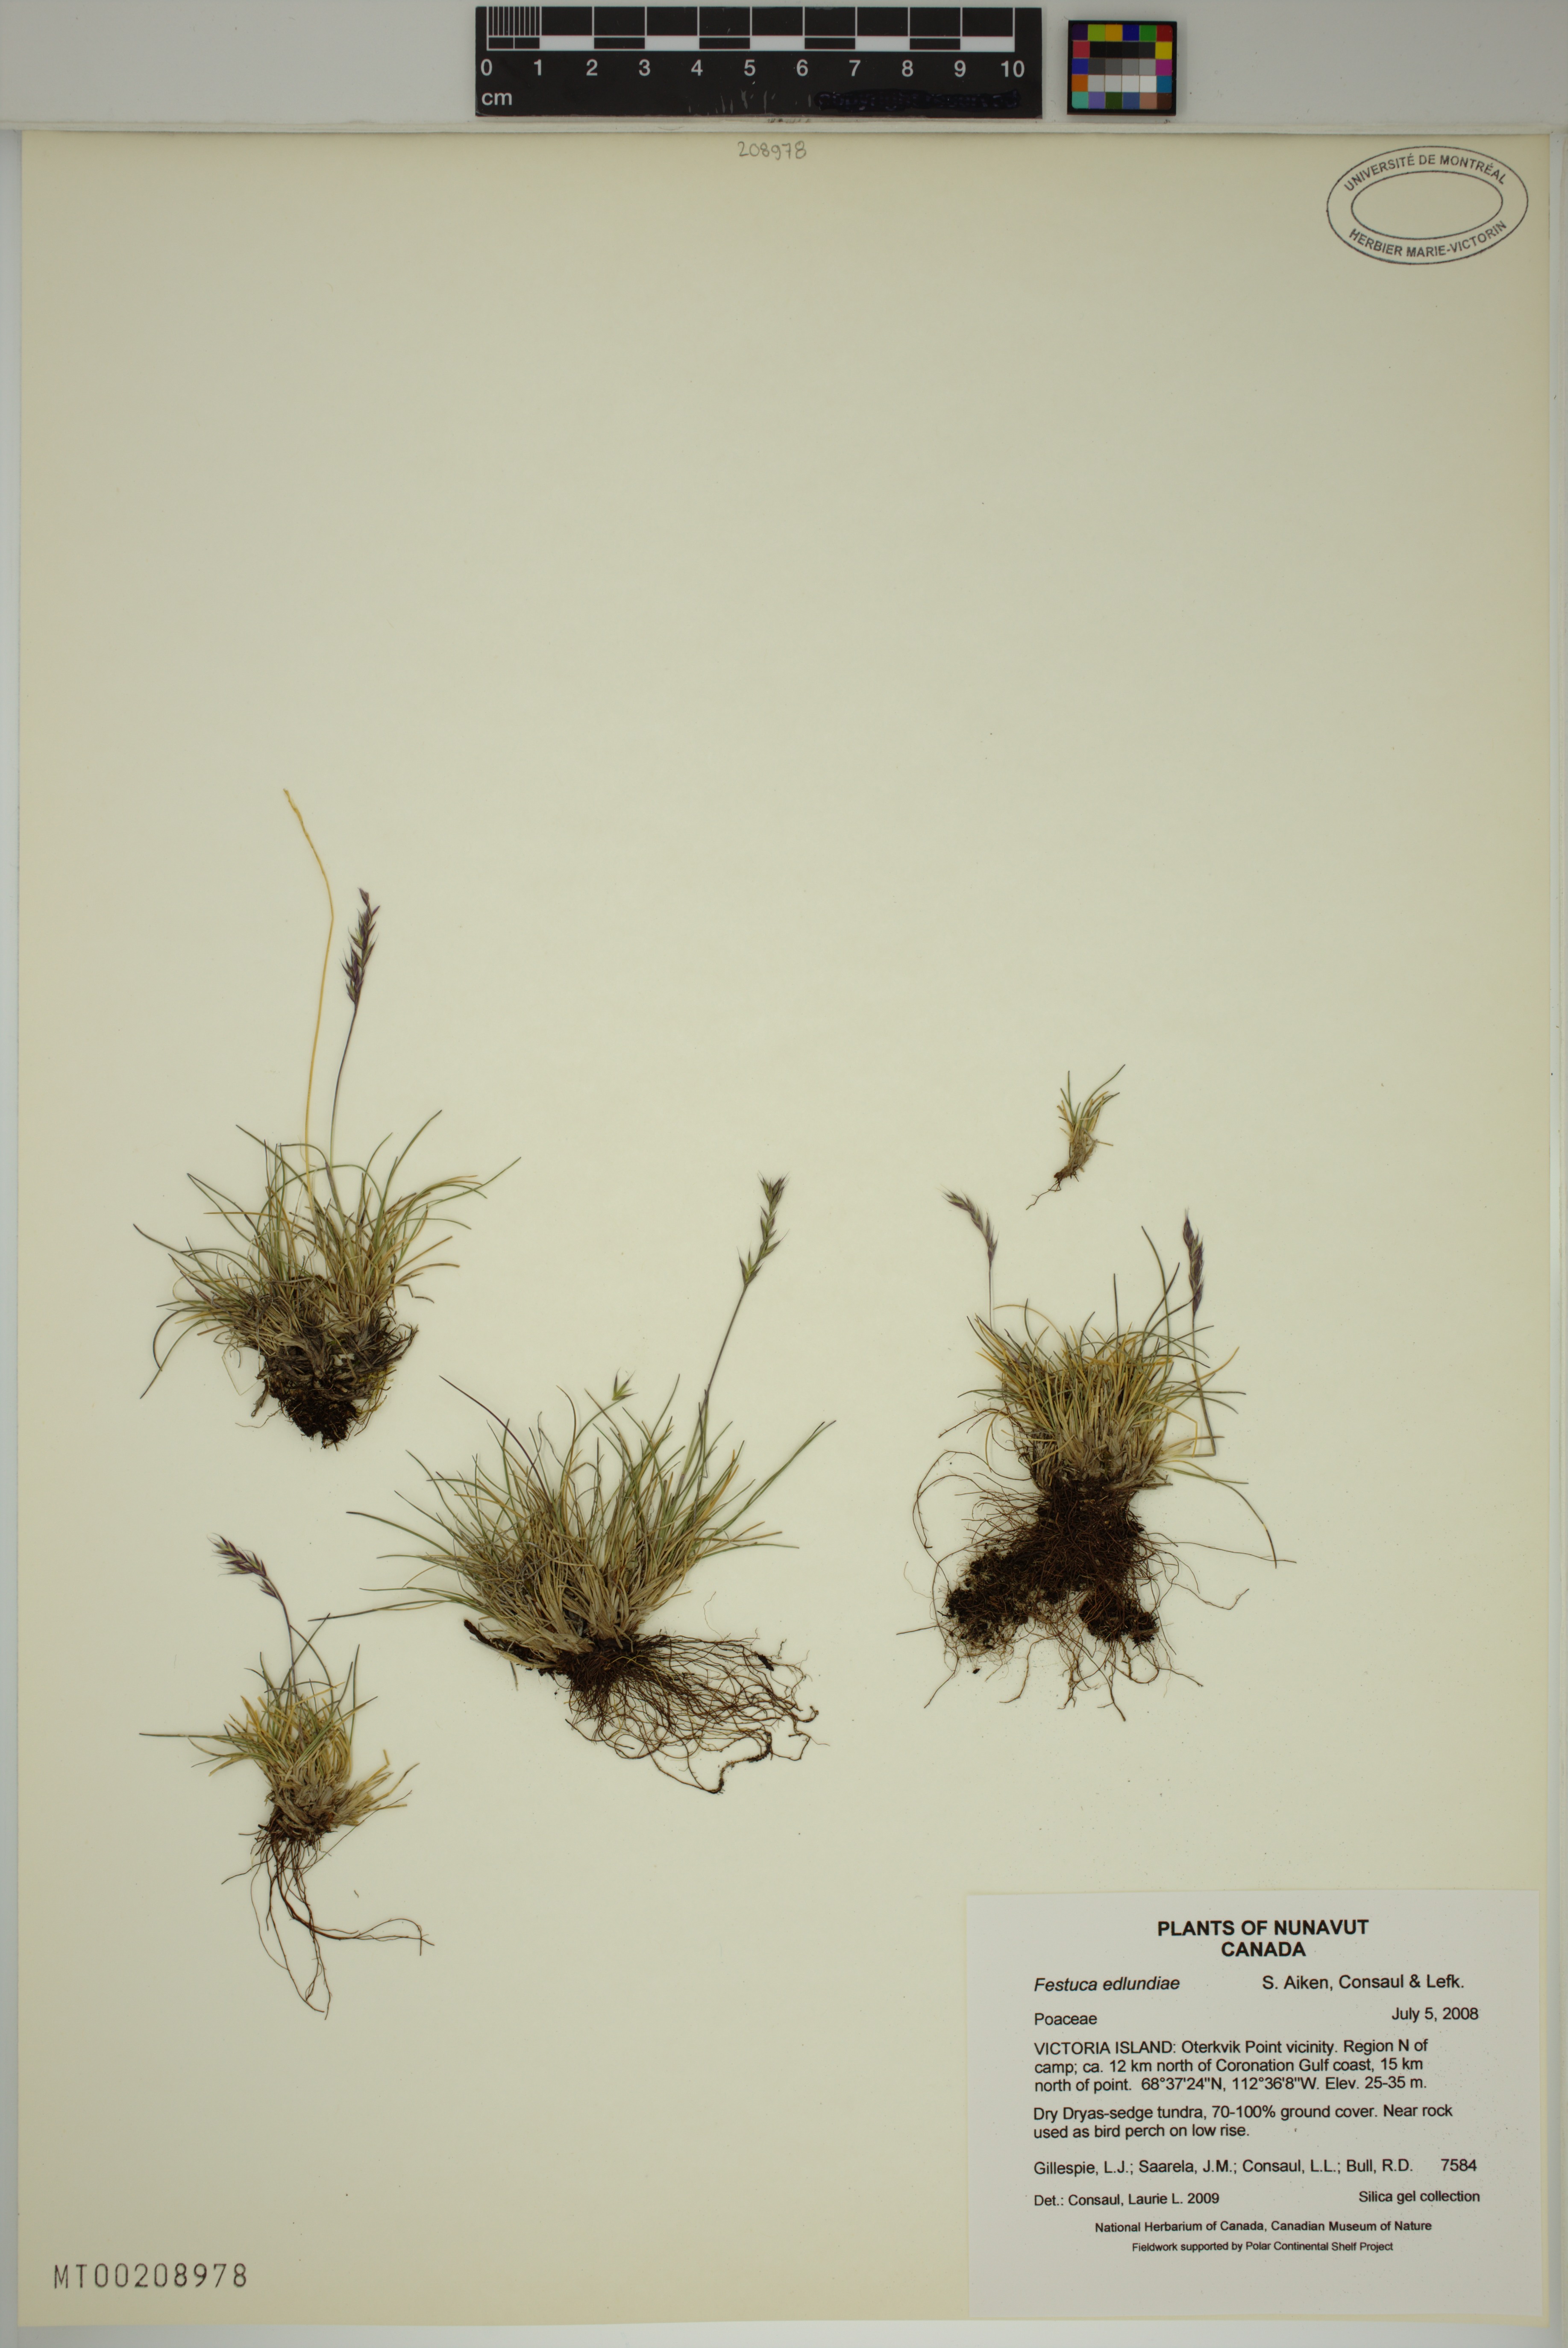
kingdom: Plantae
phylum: Tracheophyta
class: Liliopsida
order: Poales
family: Poaceae
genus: Festuca
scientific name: Festuca edlundiae
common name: Edlund's fescue
